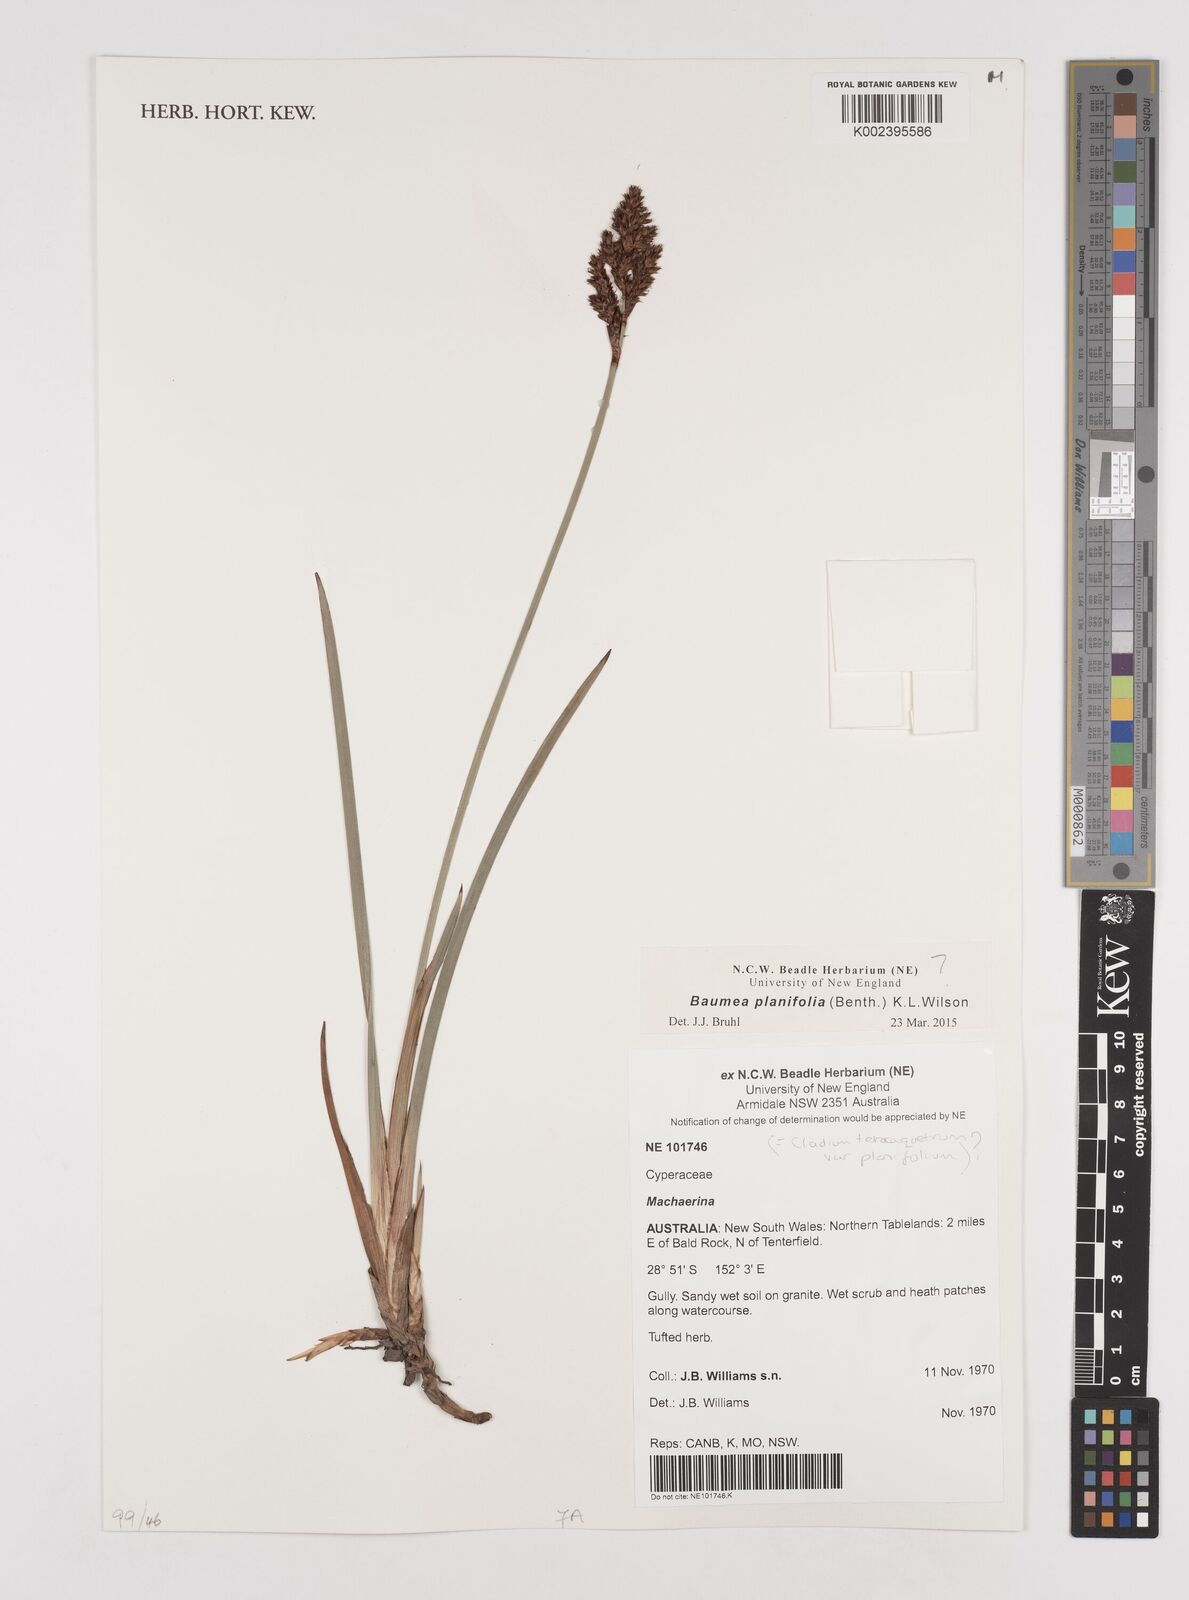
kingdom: Plantae
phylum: Tracheophyta
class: Liliopsida
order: Poales
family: Cyperaceae
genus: Machaerina
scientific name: Machaerina planifolia
